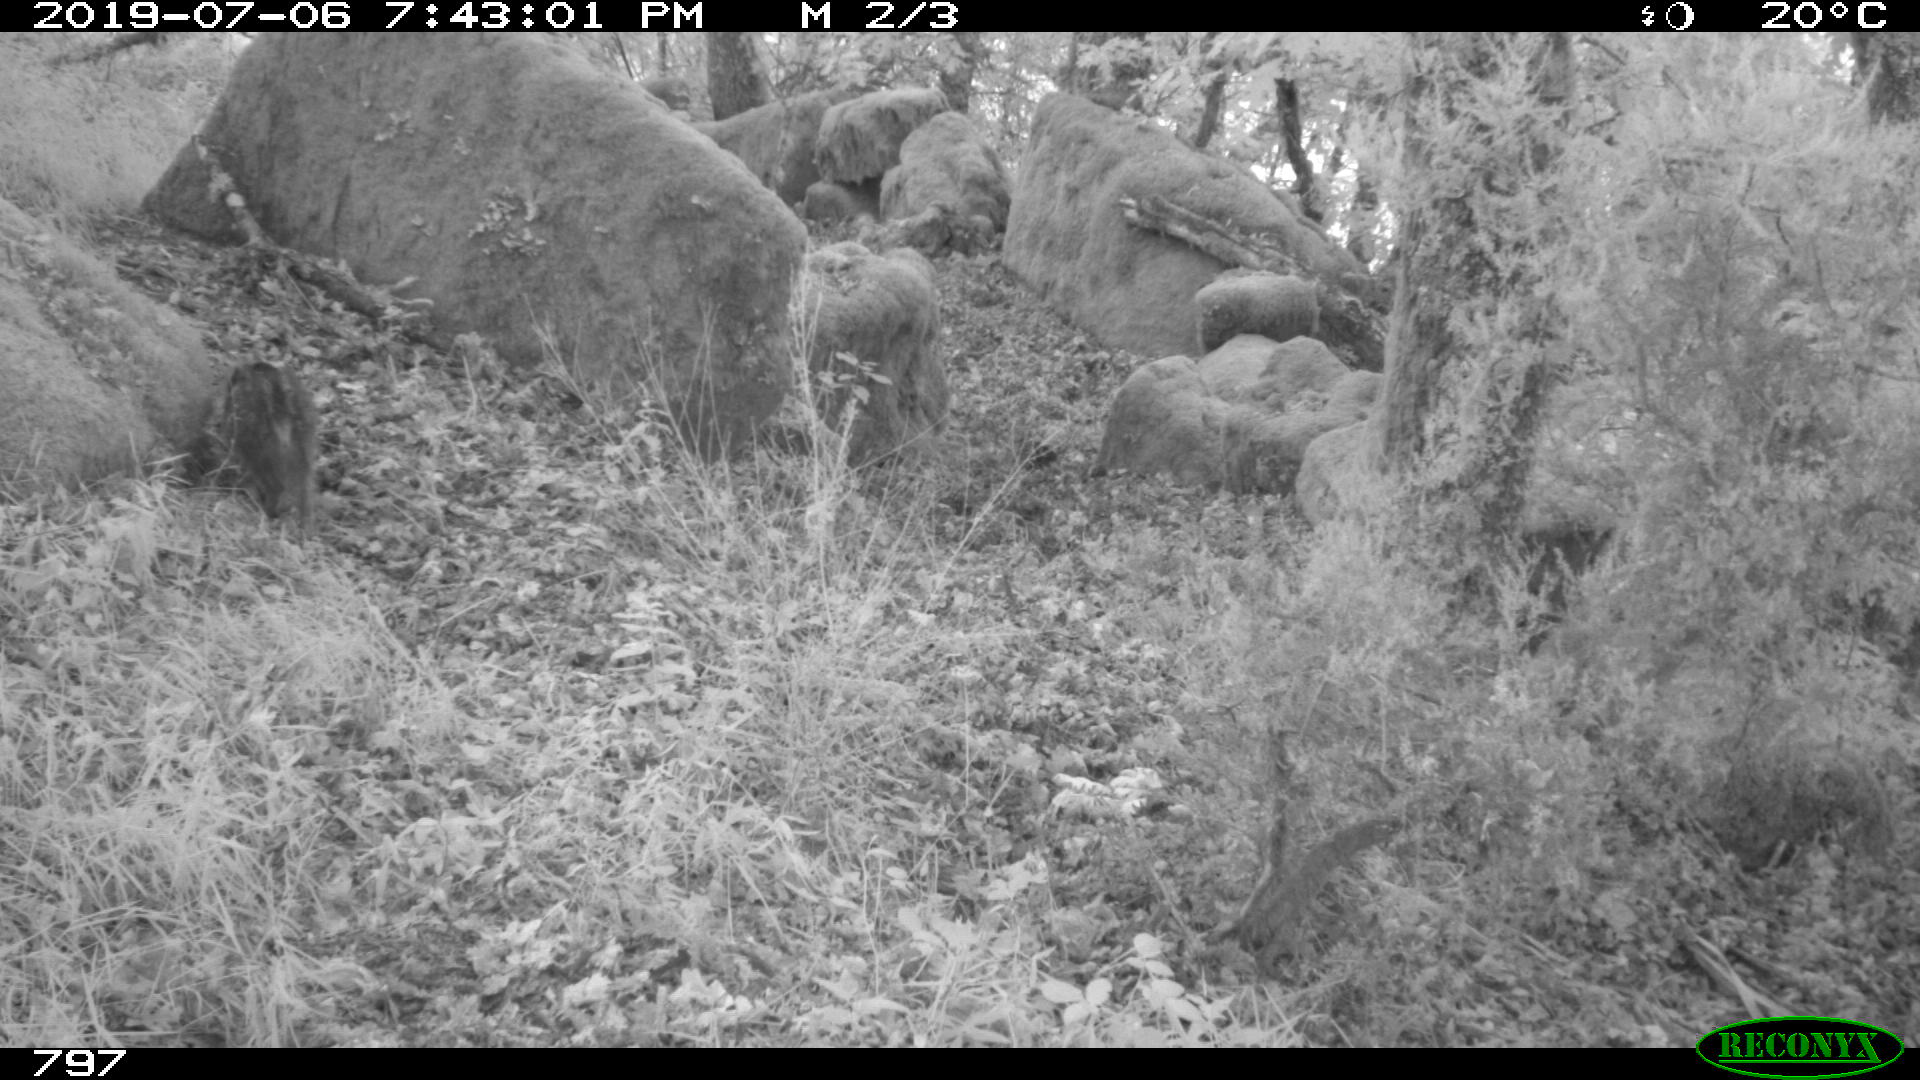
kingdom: Animalia
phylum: Chordata
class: Mammalia
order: Artiodactyla
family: Suidae
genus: Sus
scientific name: Sus scrofa
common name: Wild boar
